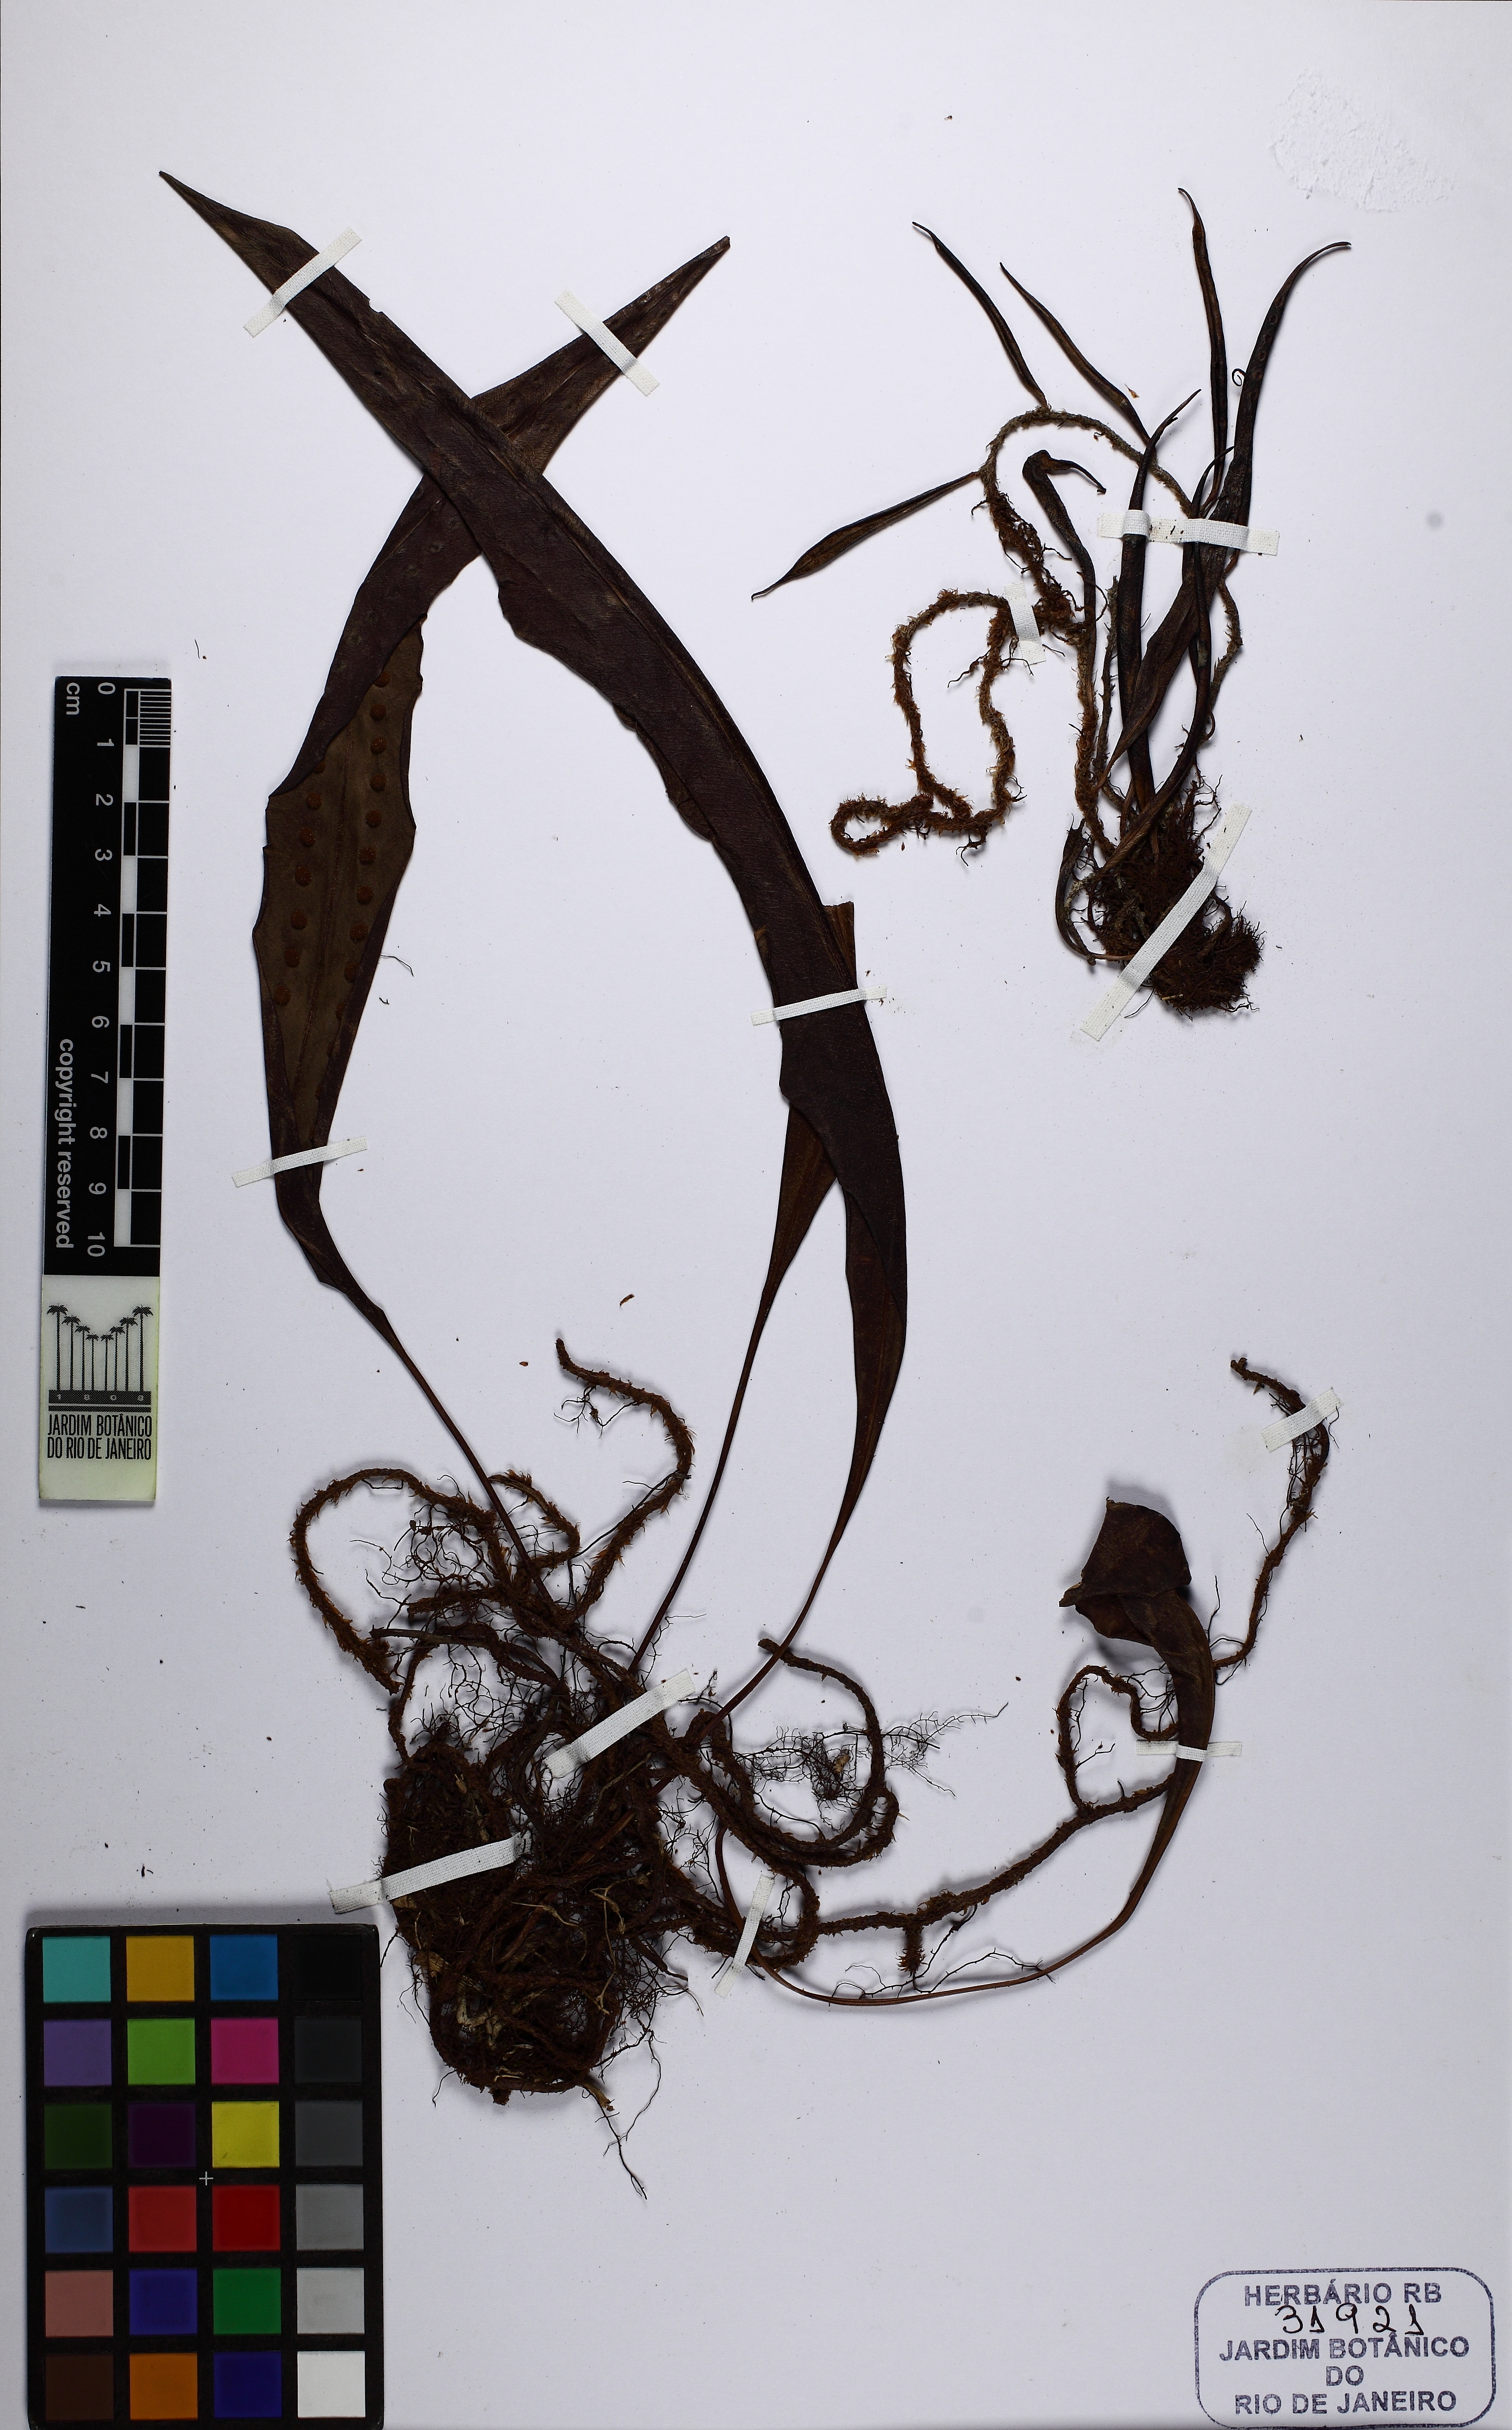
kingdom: Plantae
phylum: Tracheophyta
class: Polypodiopsida
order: Polypodiales
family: Polypodiaceae
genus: Microgramma
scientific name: Microgramma percussa
